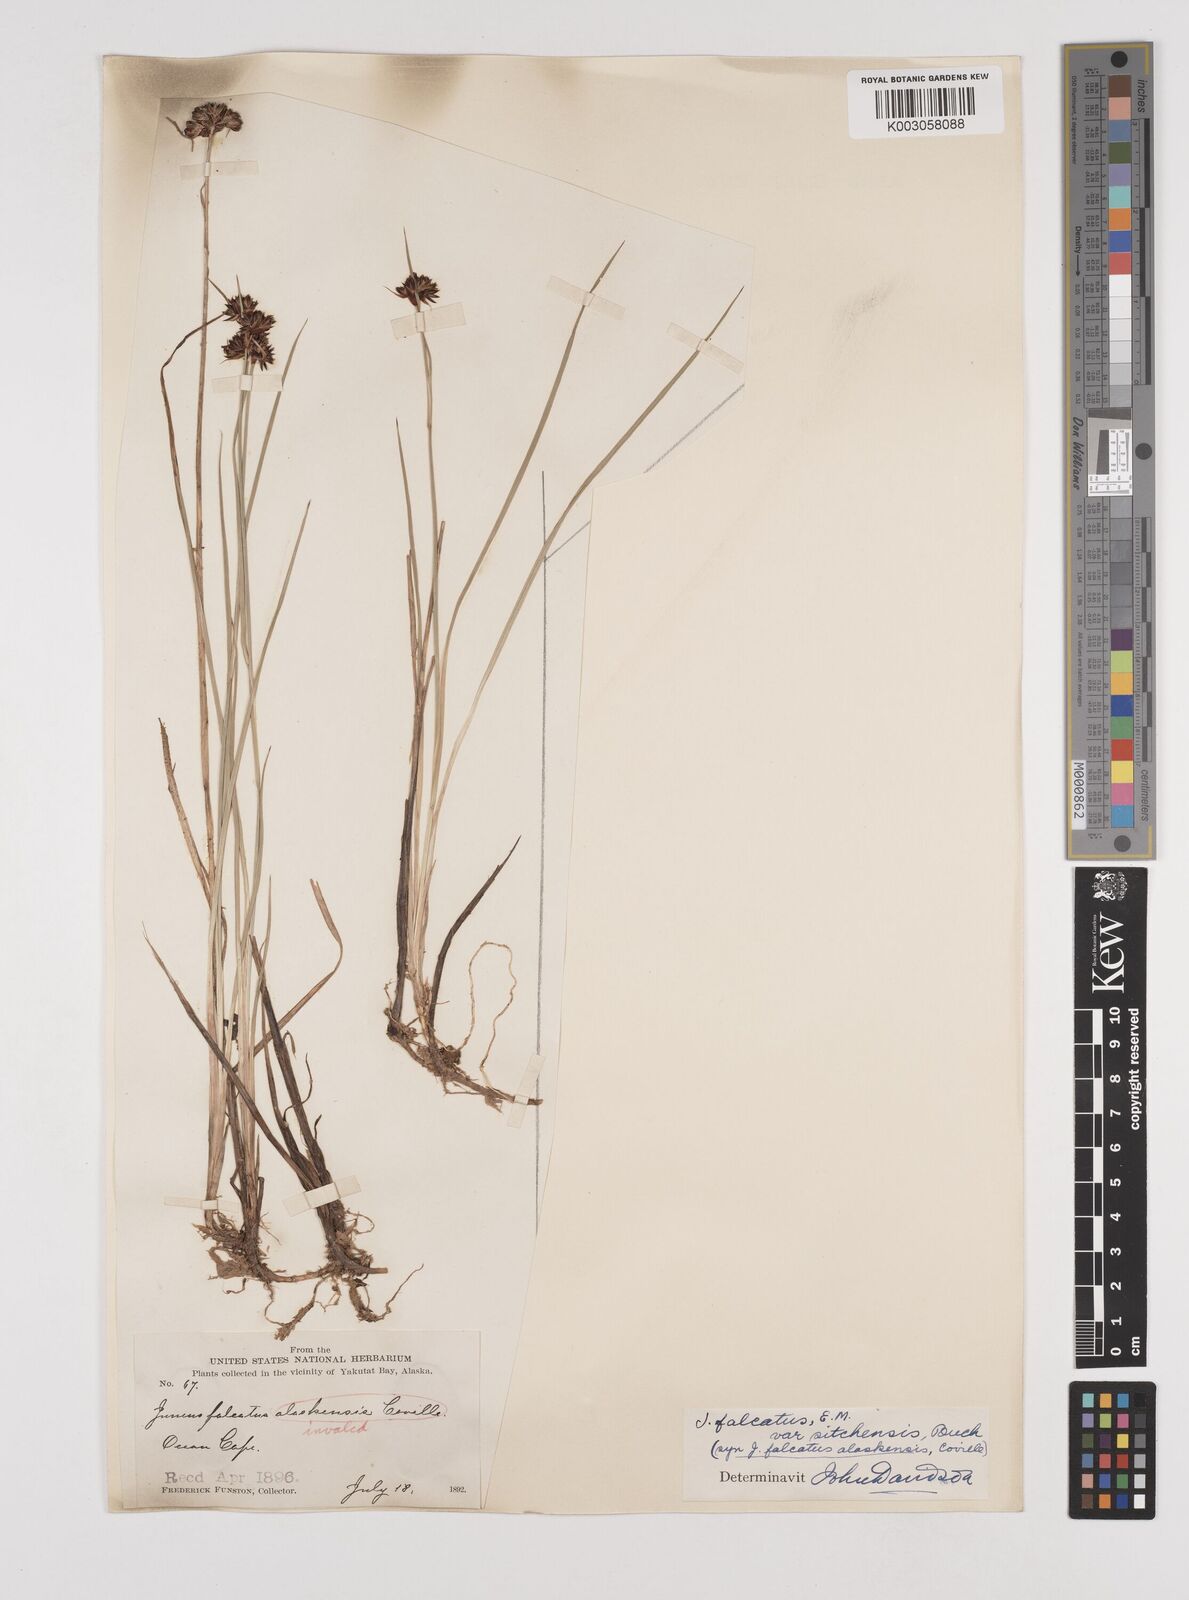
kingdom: Plantae
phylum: Tracheophyta
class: Liliopsida
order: Poales
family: Juncaceae
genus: Juncus
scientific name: Juncus falcatus
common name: Sickle-leaf rush
